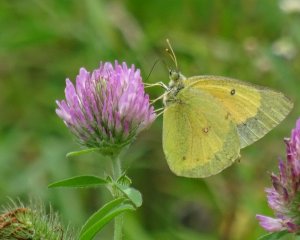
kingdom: Animalia
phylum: Arthropoda
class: Insecta
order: Lepidoptera
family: Pieridae
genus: Colias
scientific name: Colias eurytheme
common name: Orange Sulphur
